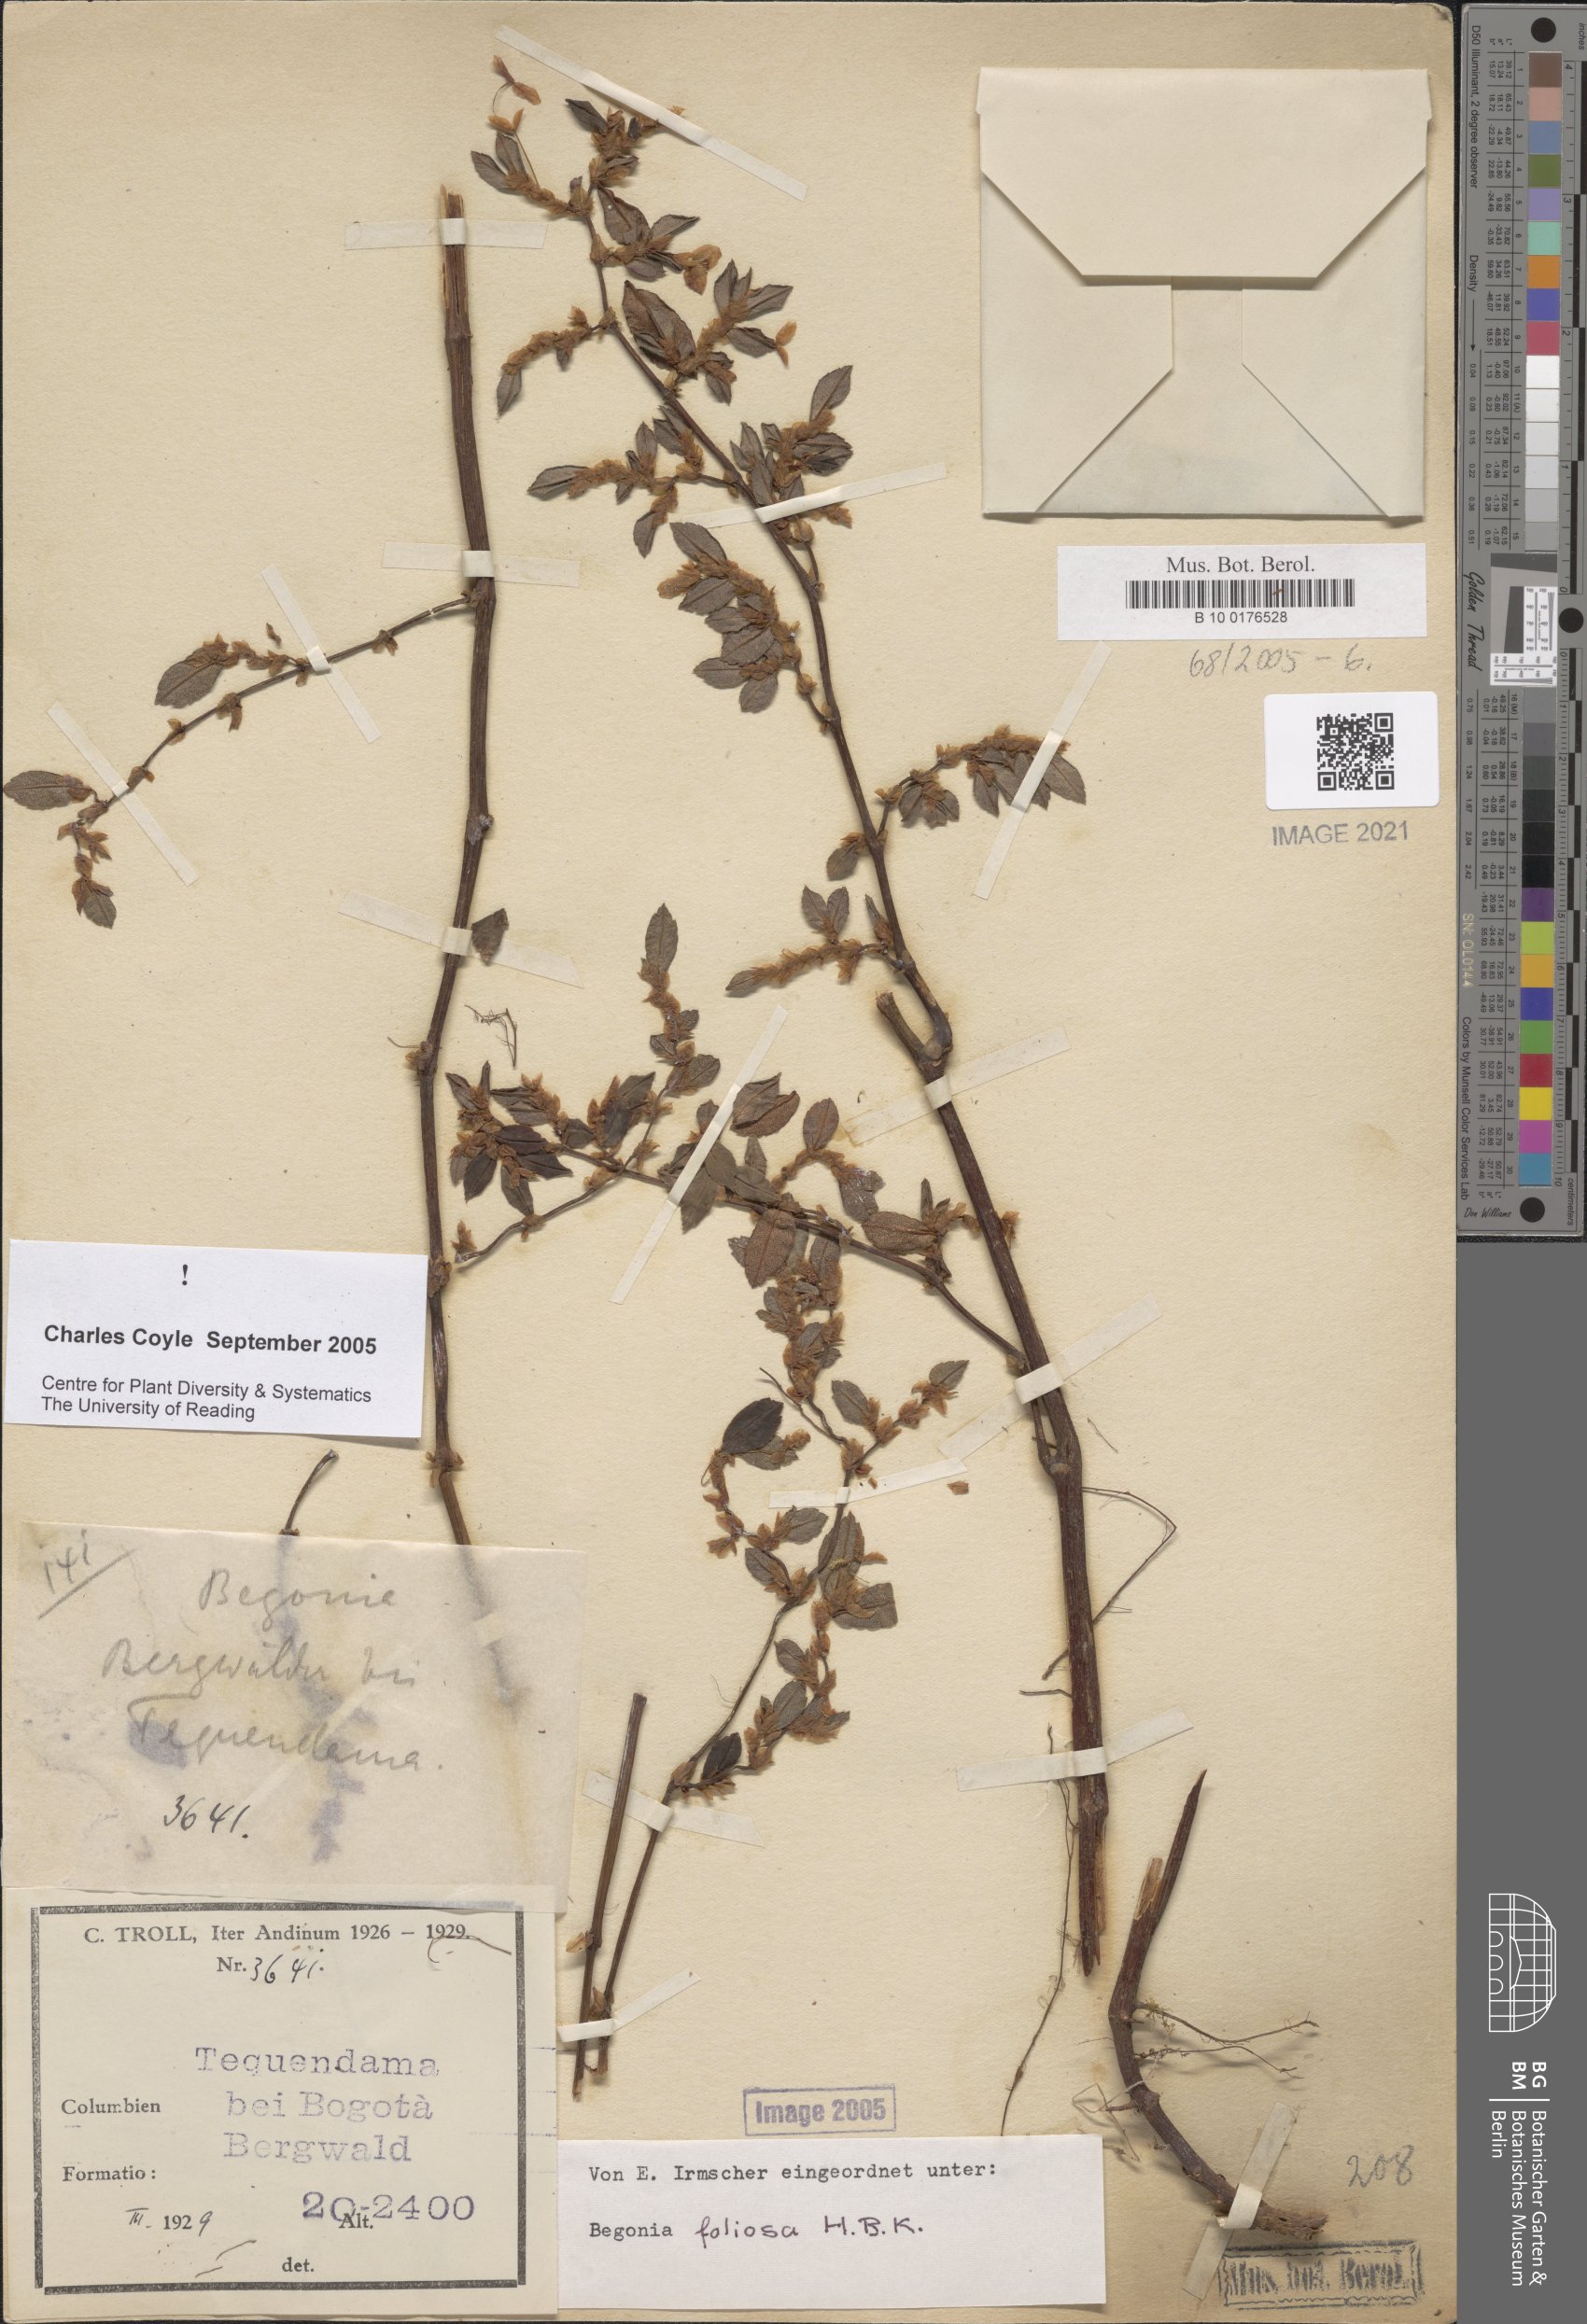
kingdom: Plantae
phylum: Tracheophyta
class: Magnoliopsida
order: Cucurbitales
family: Begoniaceae
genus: Begonia
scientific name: Begonia foliosa
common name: Fern begonia
